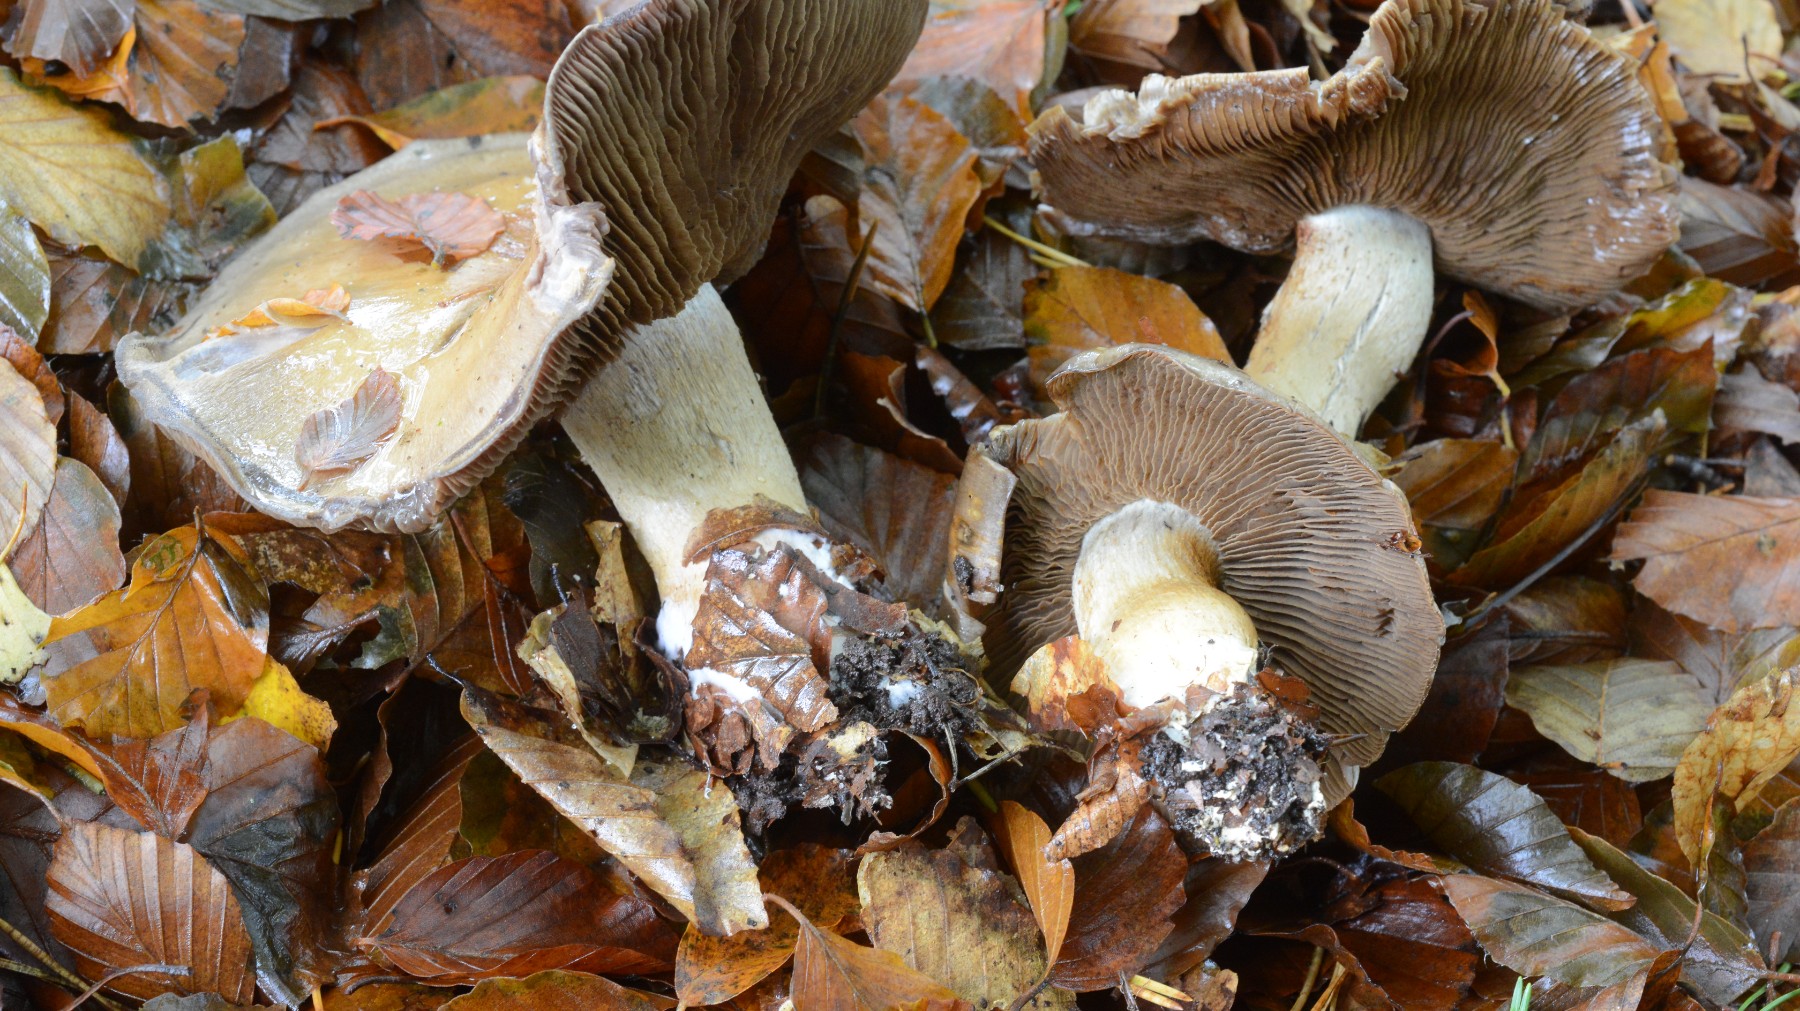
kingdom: Fungi
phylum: Basidiomycota
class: Agaricomycetes
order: Agaricales
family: Cortinariaceae
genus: Cortinarius
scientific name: Cortinarius infractus
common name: galde-slørhat
